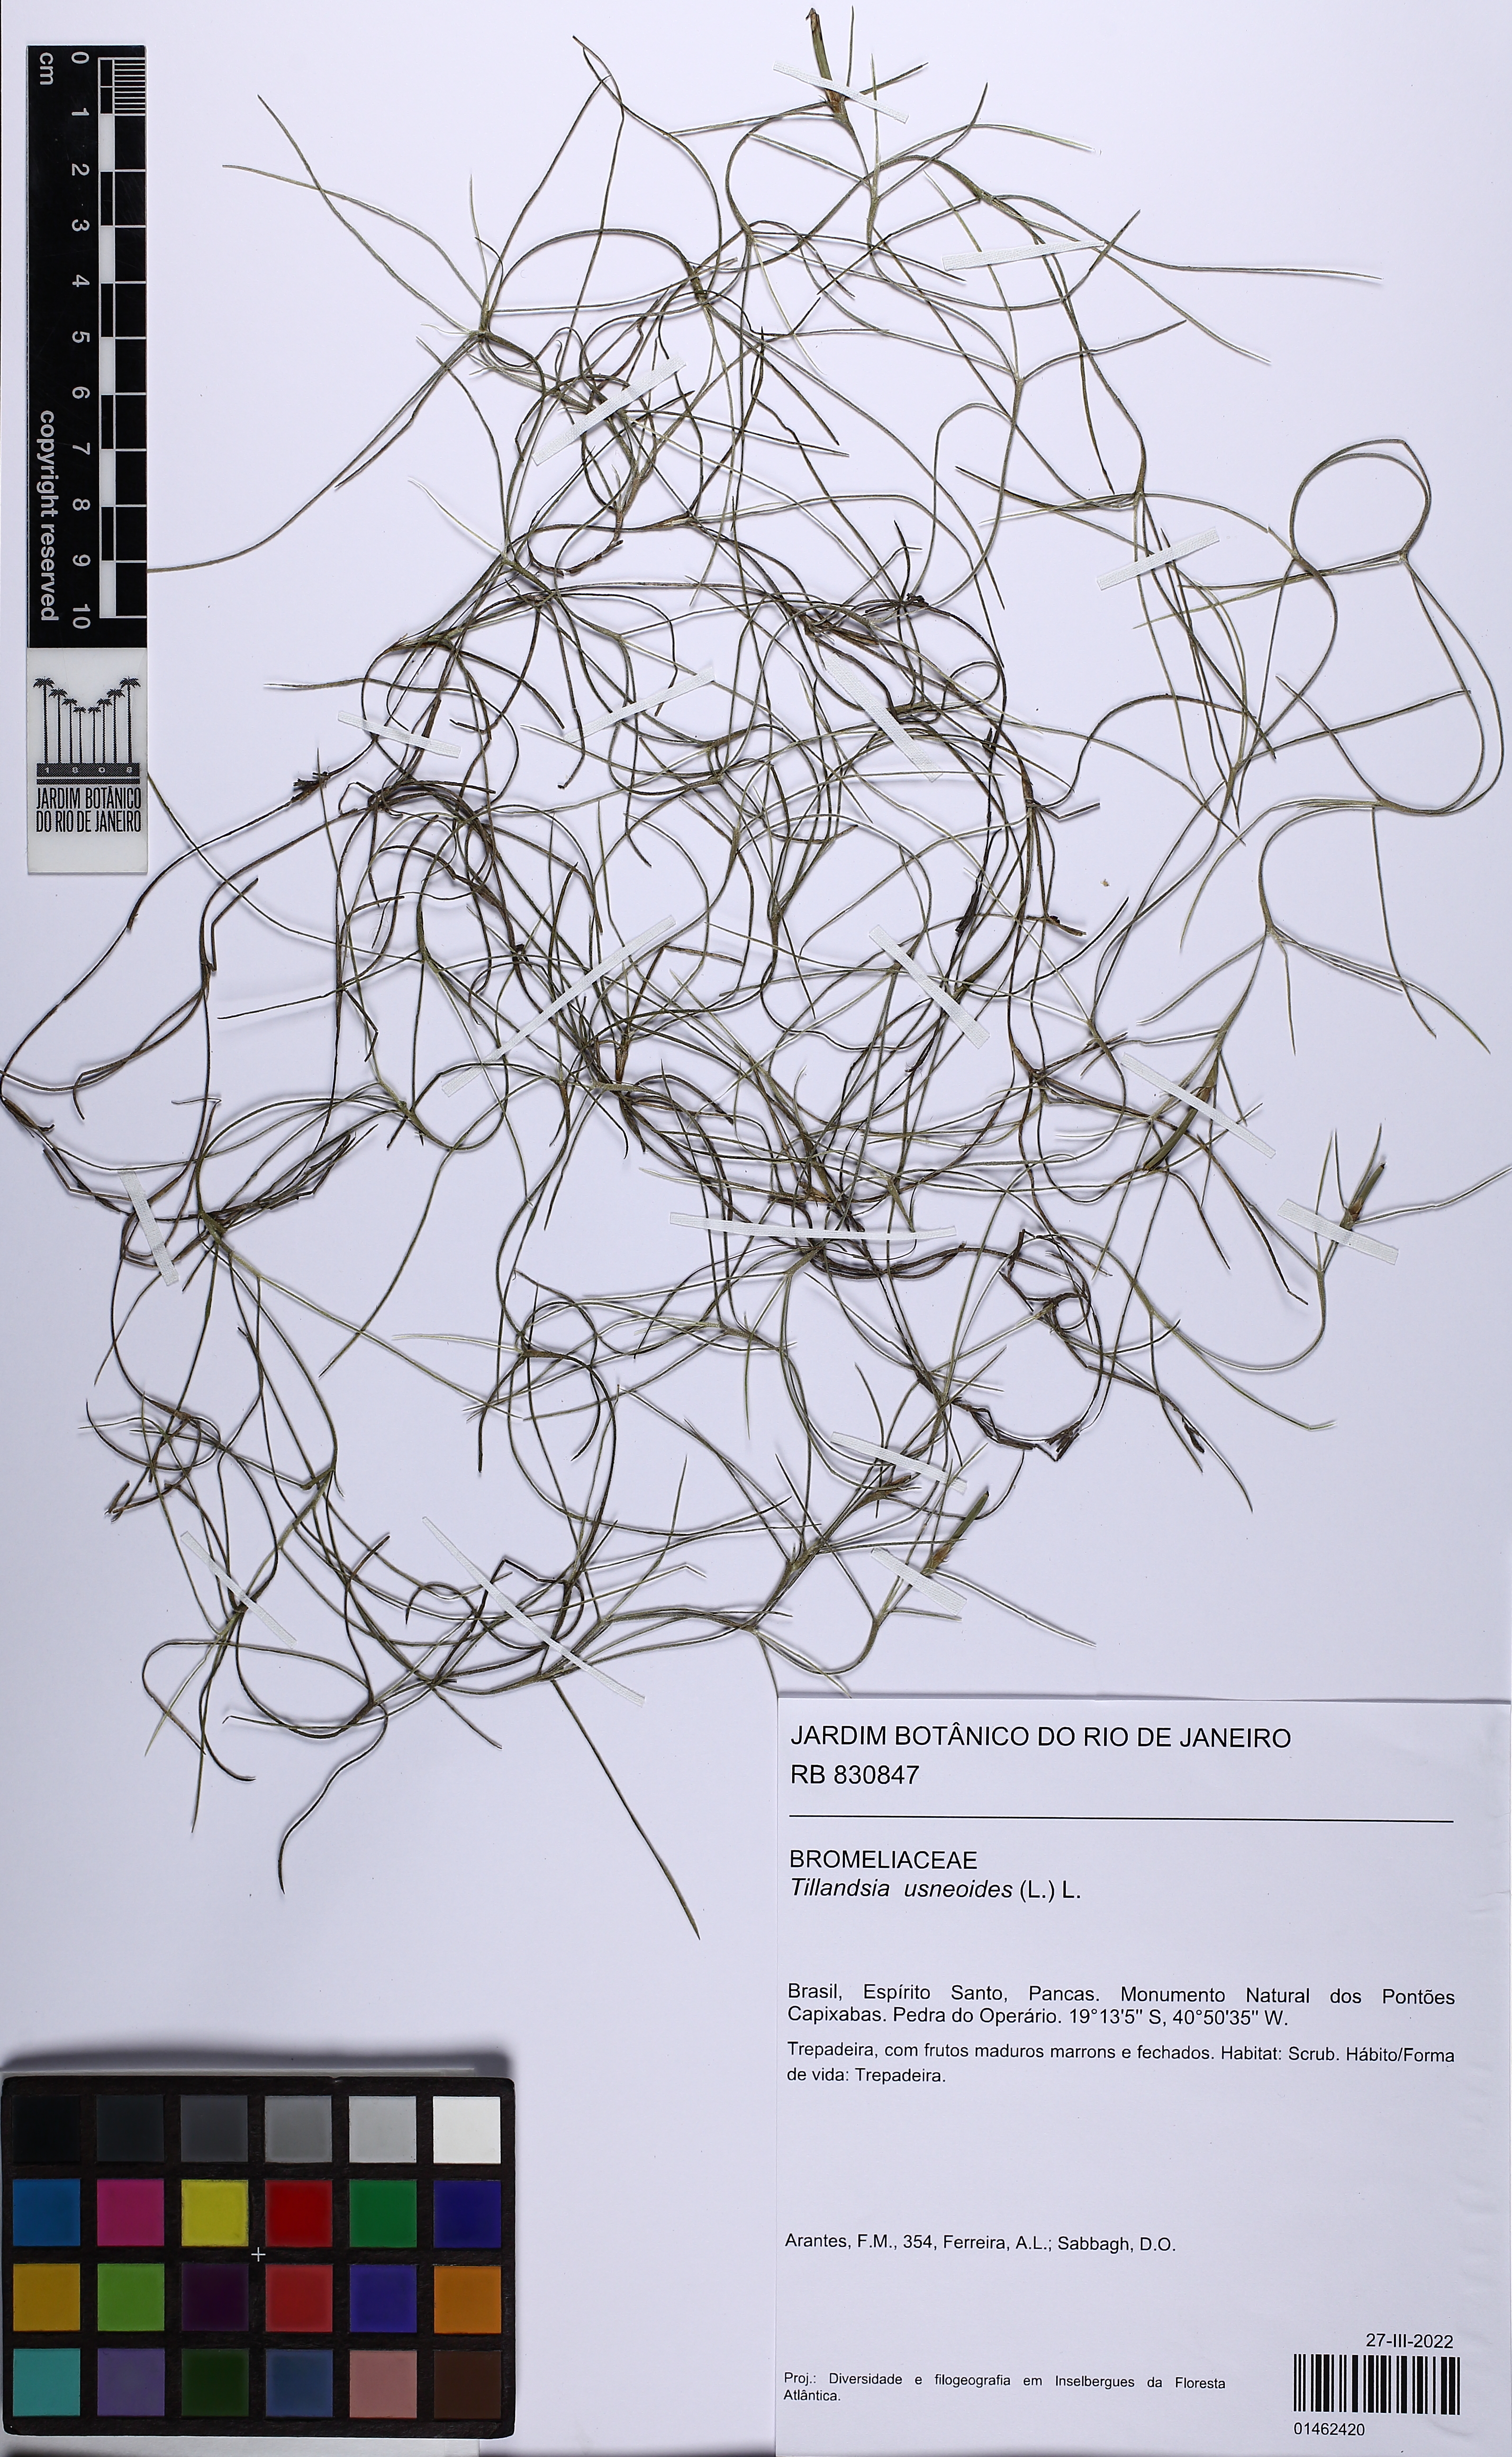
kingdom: Plantae
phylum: Tracheophyta
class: Liliopsida
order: Poales
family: Bromeliaceae
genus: Tillandsia
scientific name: Tillandsia usneoides
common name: Spanish moss
